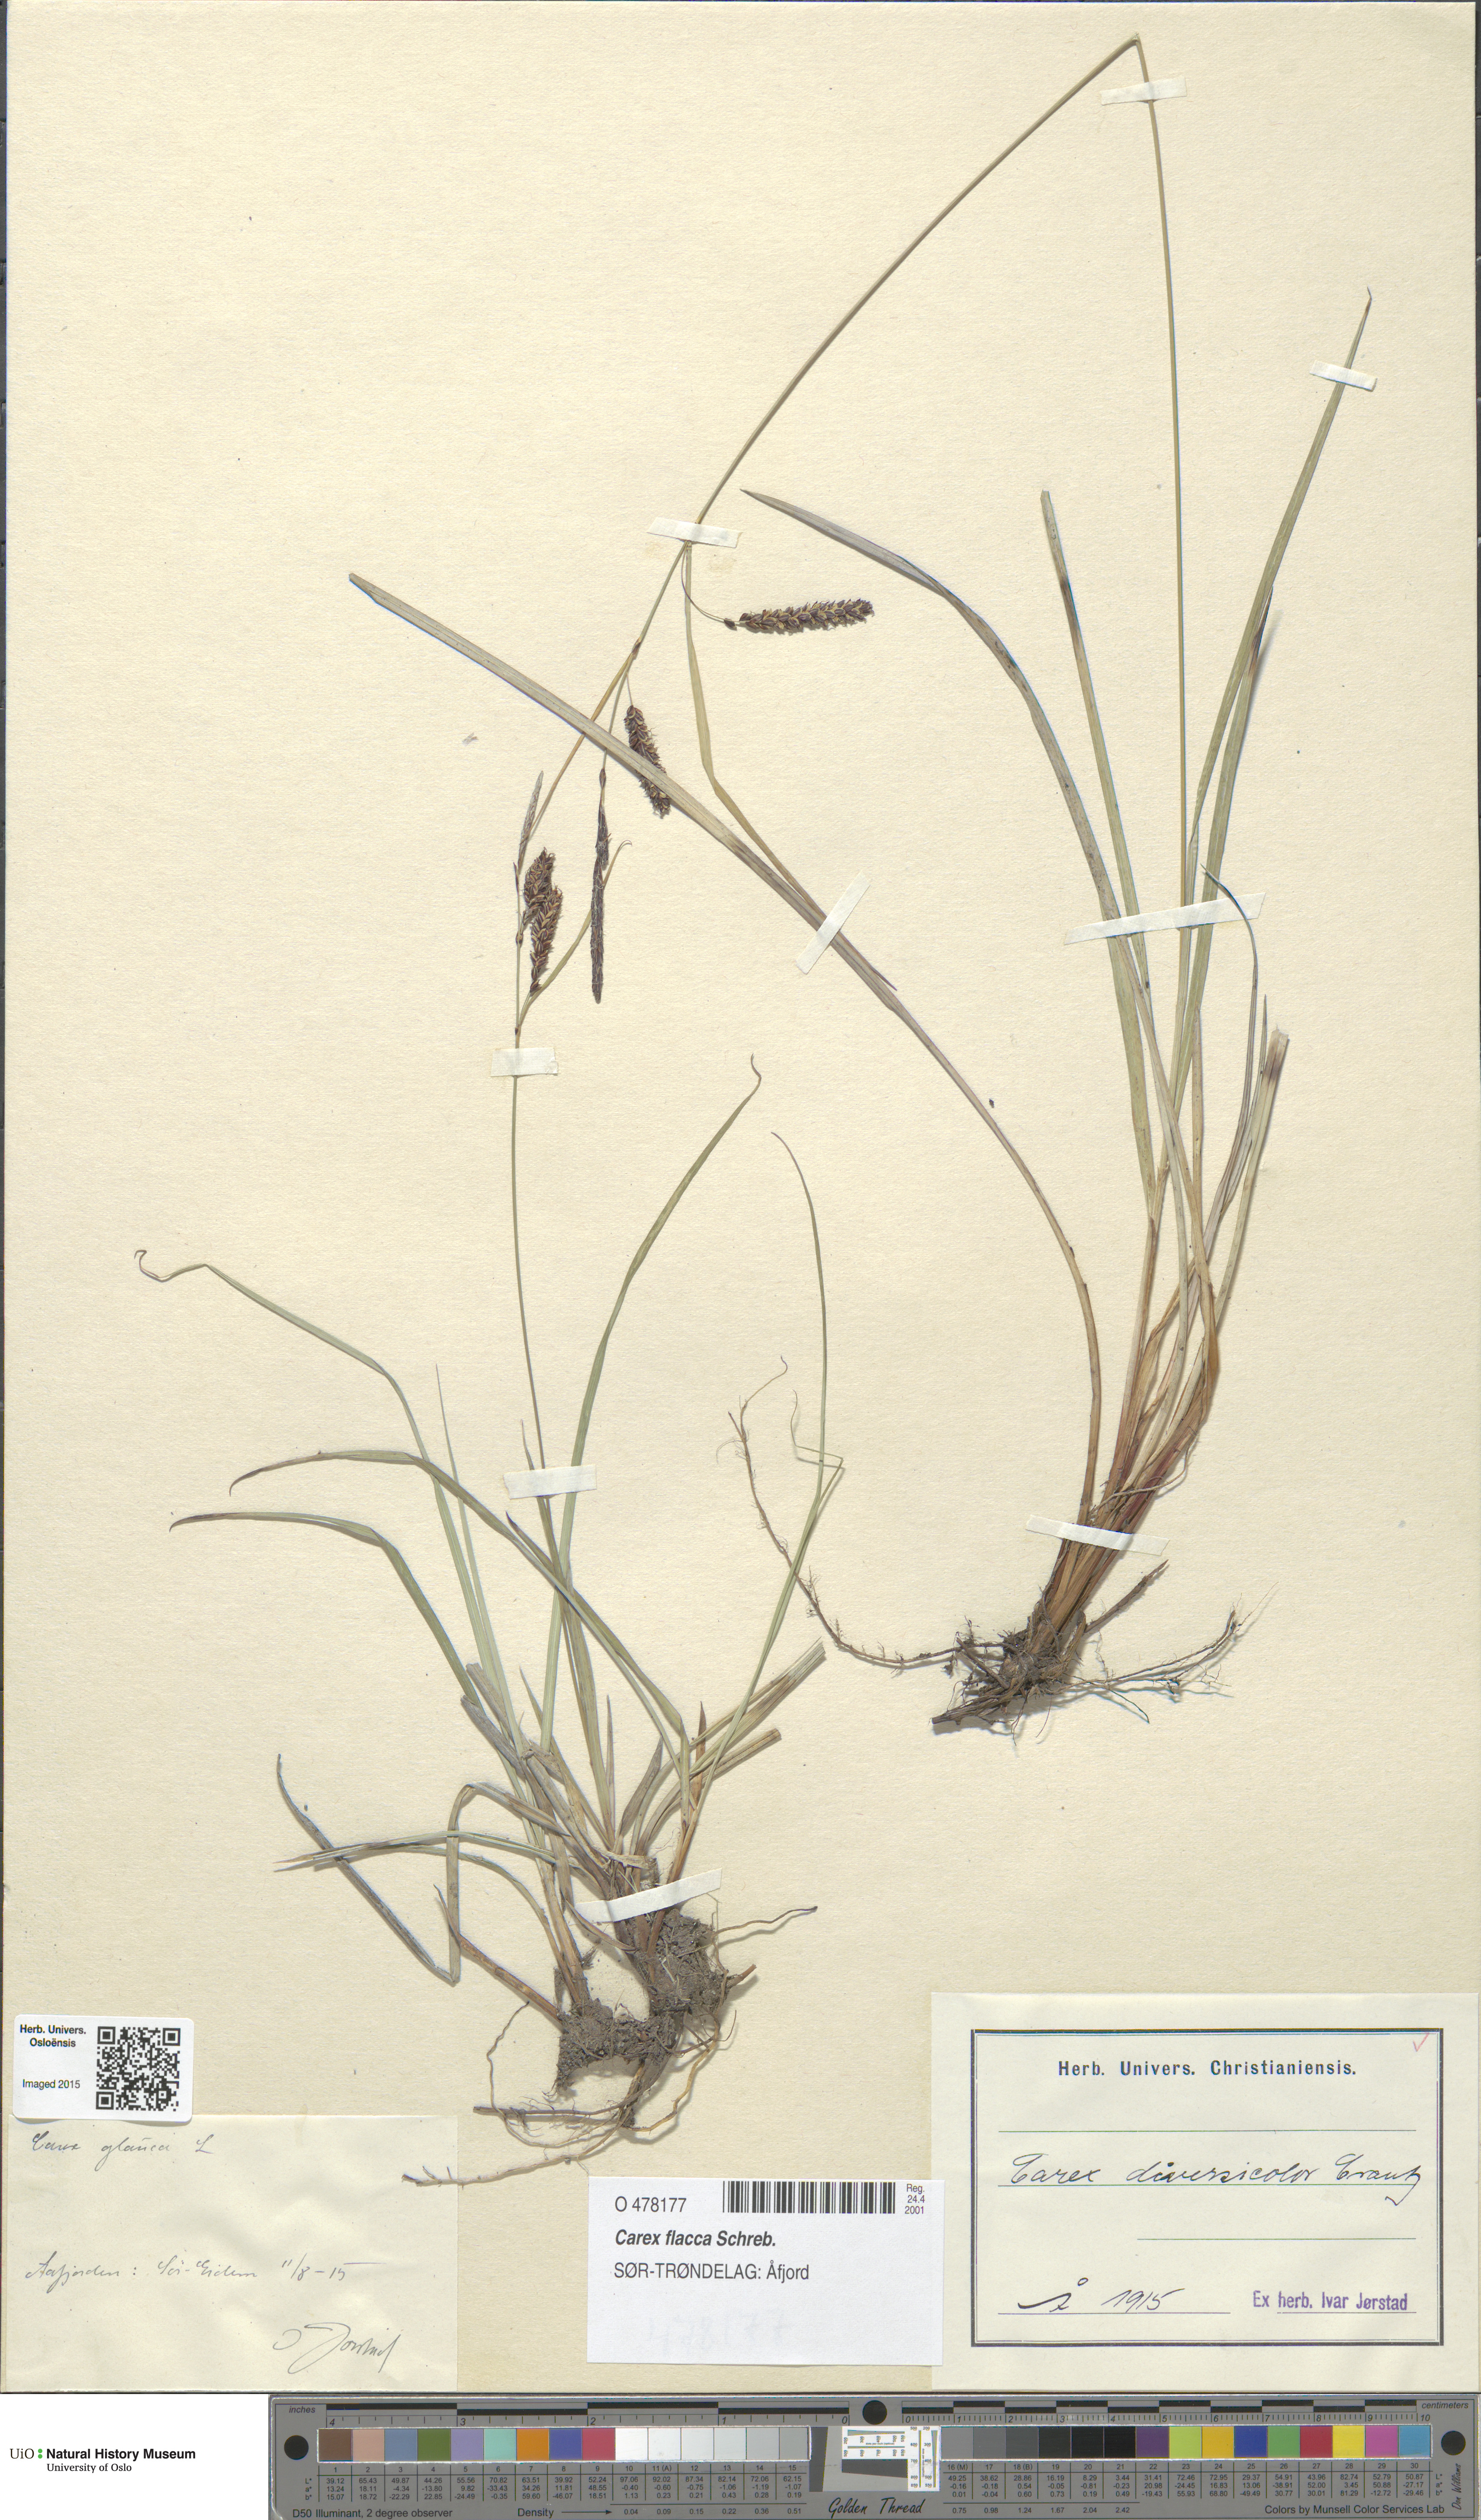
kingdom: Plantae
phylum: Tracheophyta
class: Liliopsida
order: Poales
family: Cyperaceae
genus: Carex
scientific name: Carex flacca
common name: Glaucous sedge
